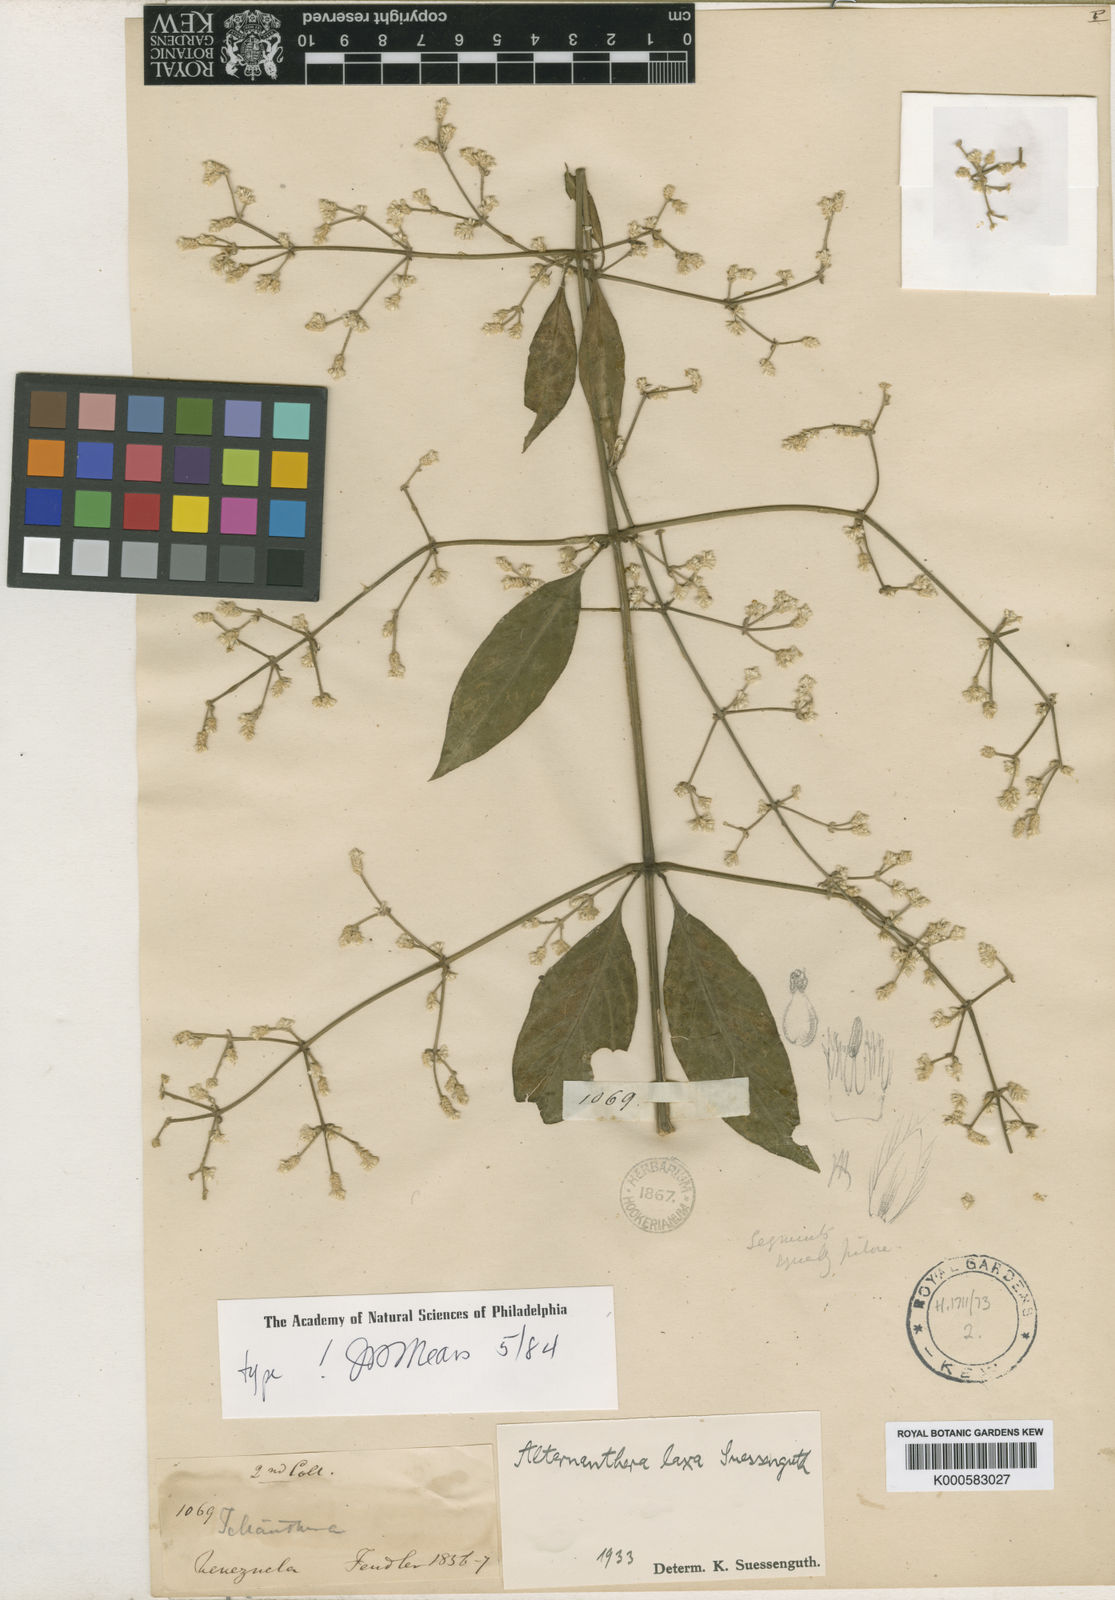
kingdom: Plantae
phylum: Tracheophyta
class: Magnoliopsida
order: Caryophyllales
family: Amaranthaceae
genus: Alternanthera
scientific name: Alternanthera laxa
